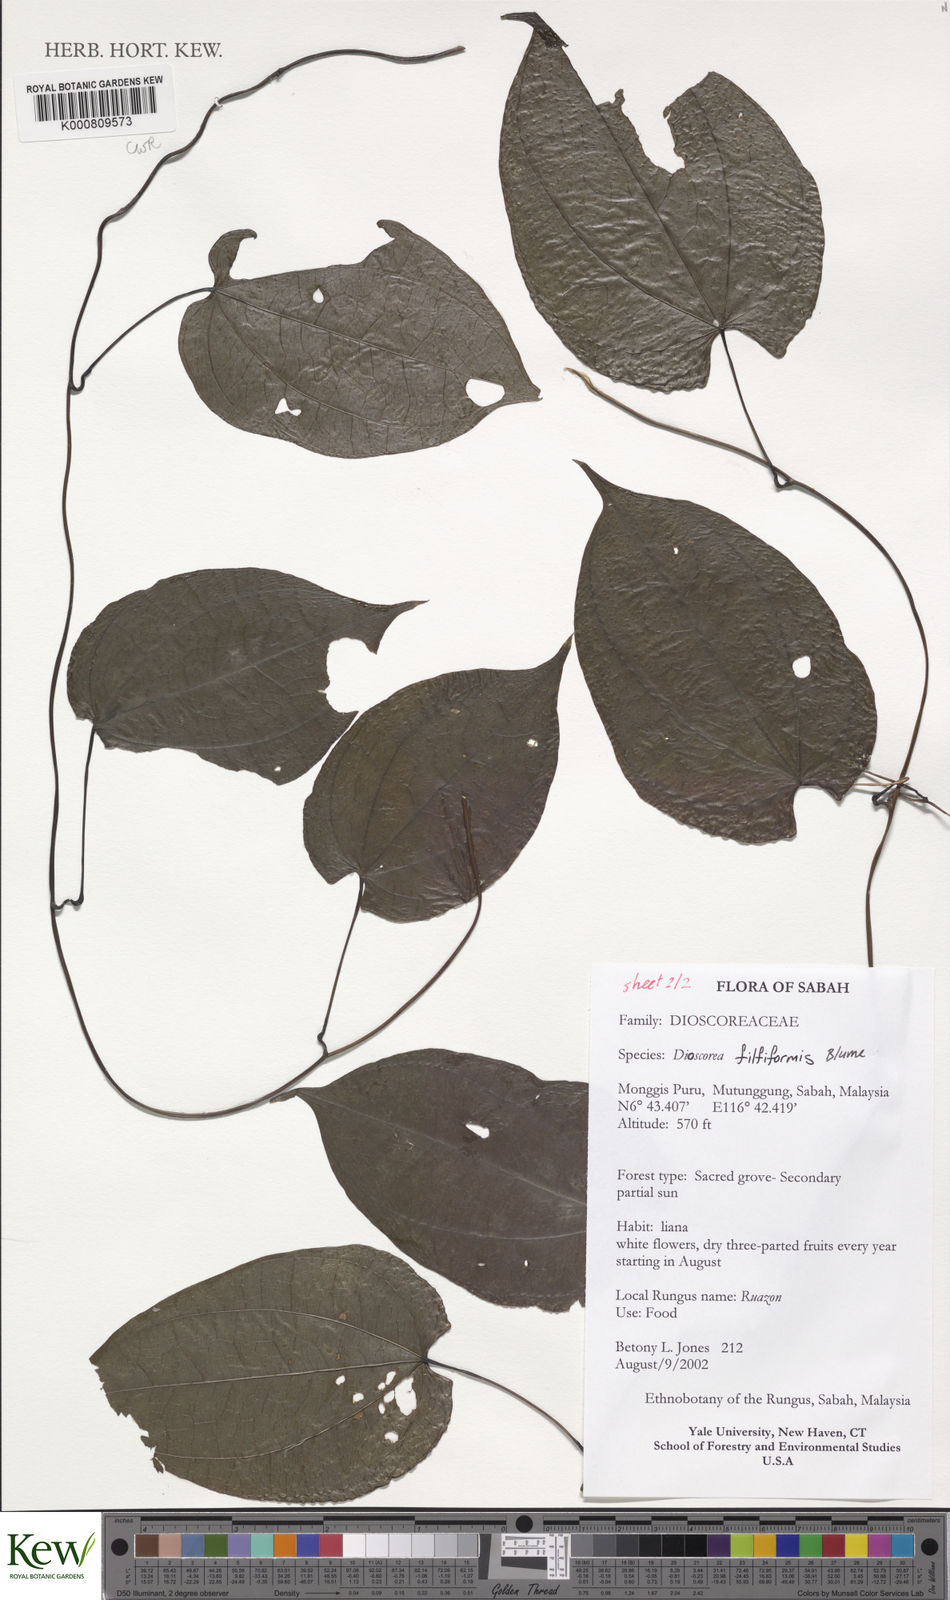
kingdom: Plantae
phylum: Tracheophyta
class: Liliopsida
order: Dioscoreales
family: Dioscoreaceae
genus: Dioscorea
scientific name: Dioscorea filiformis
